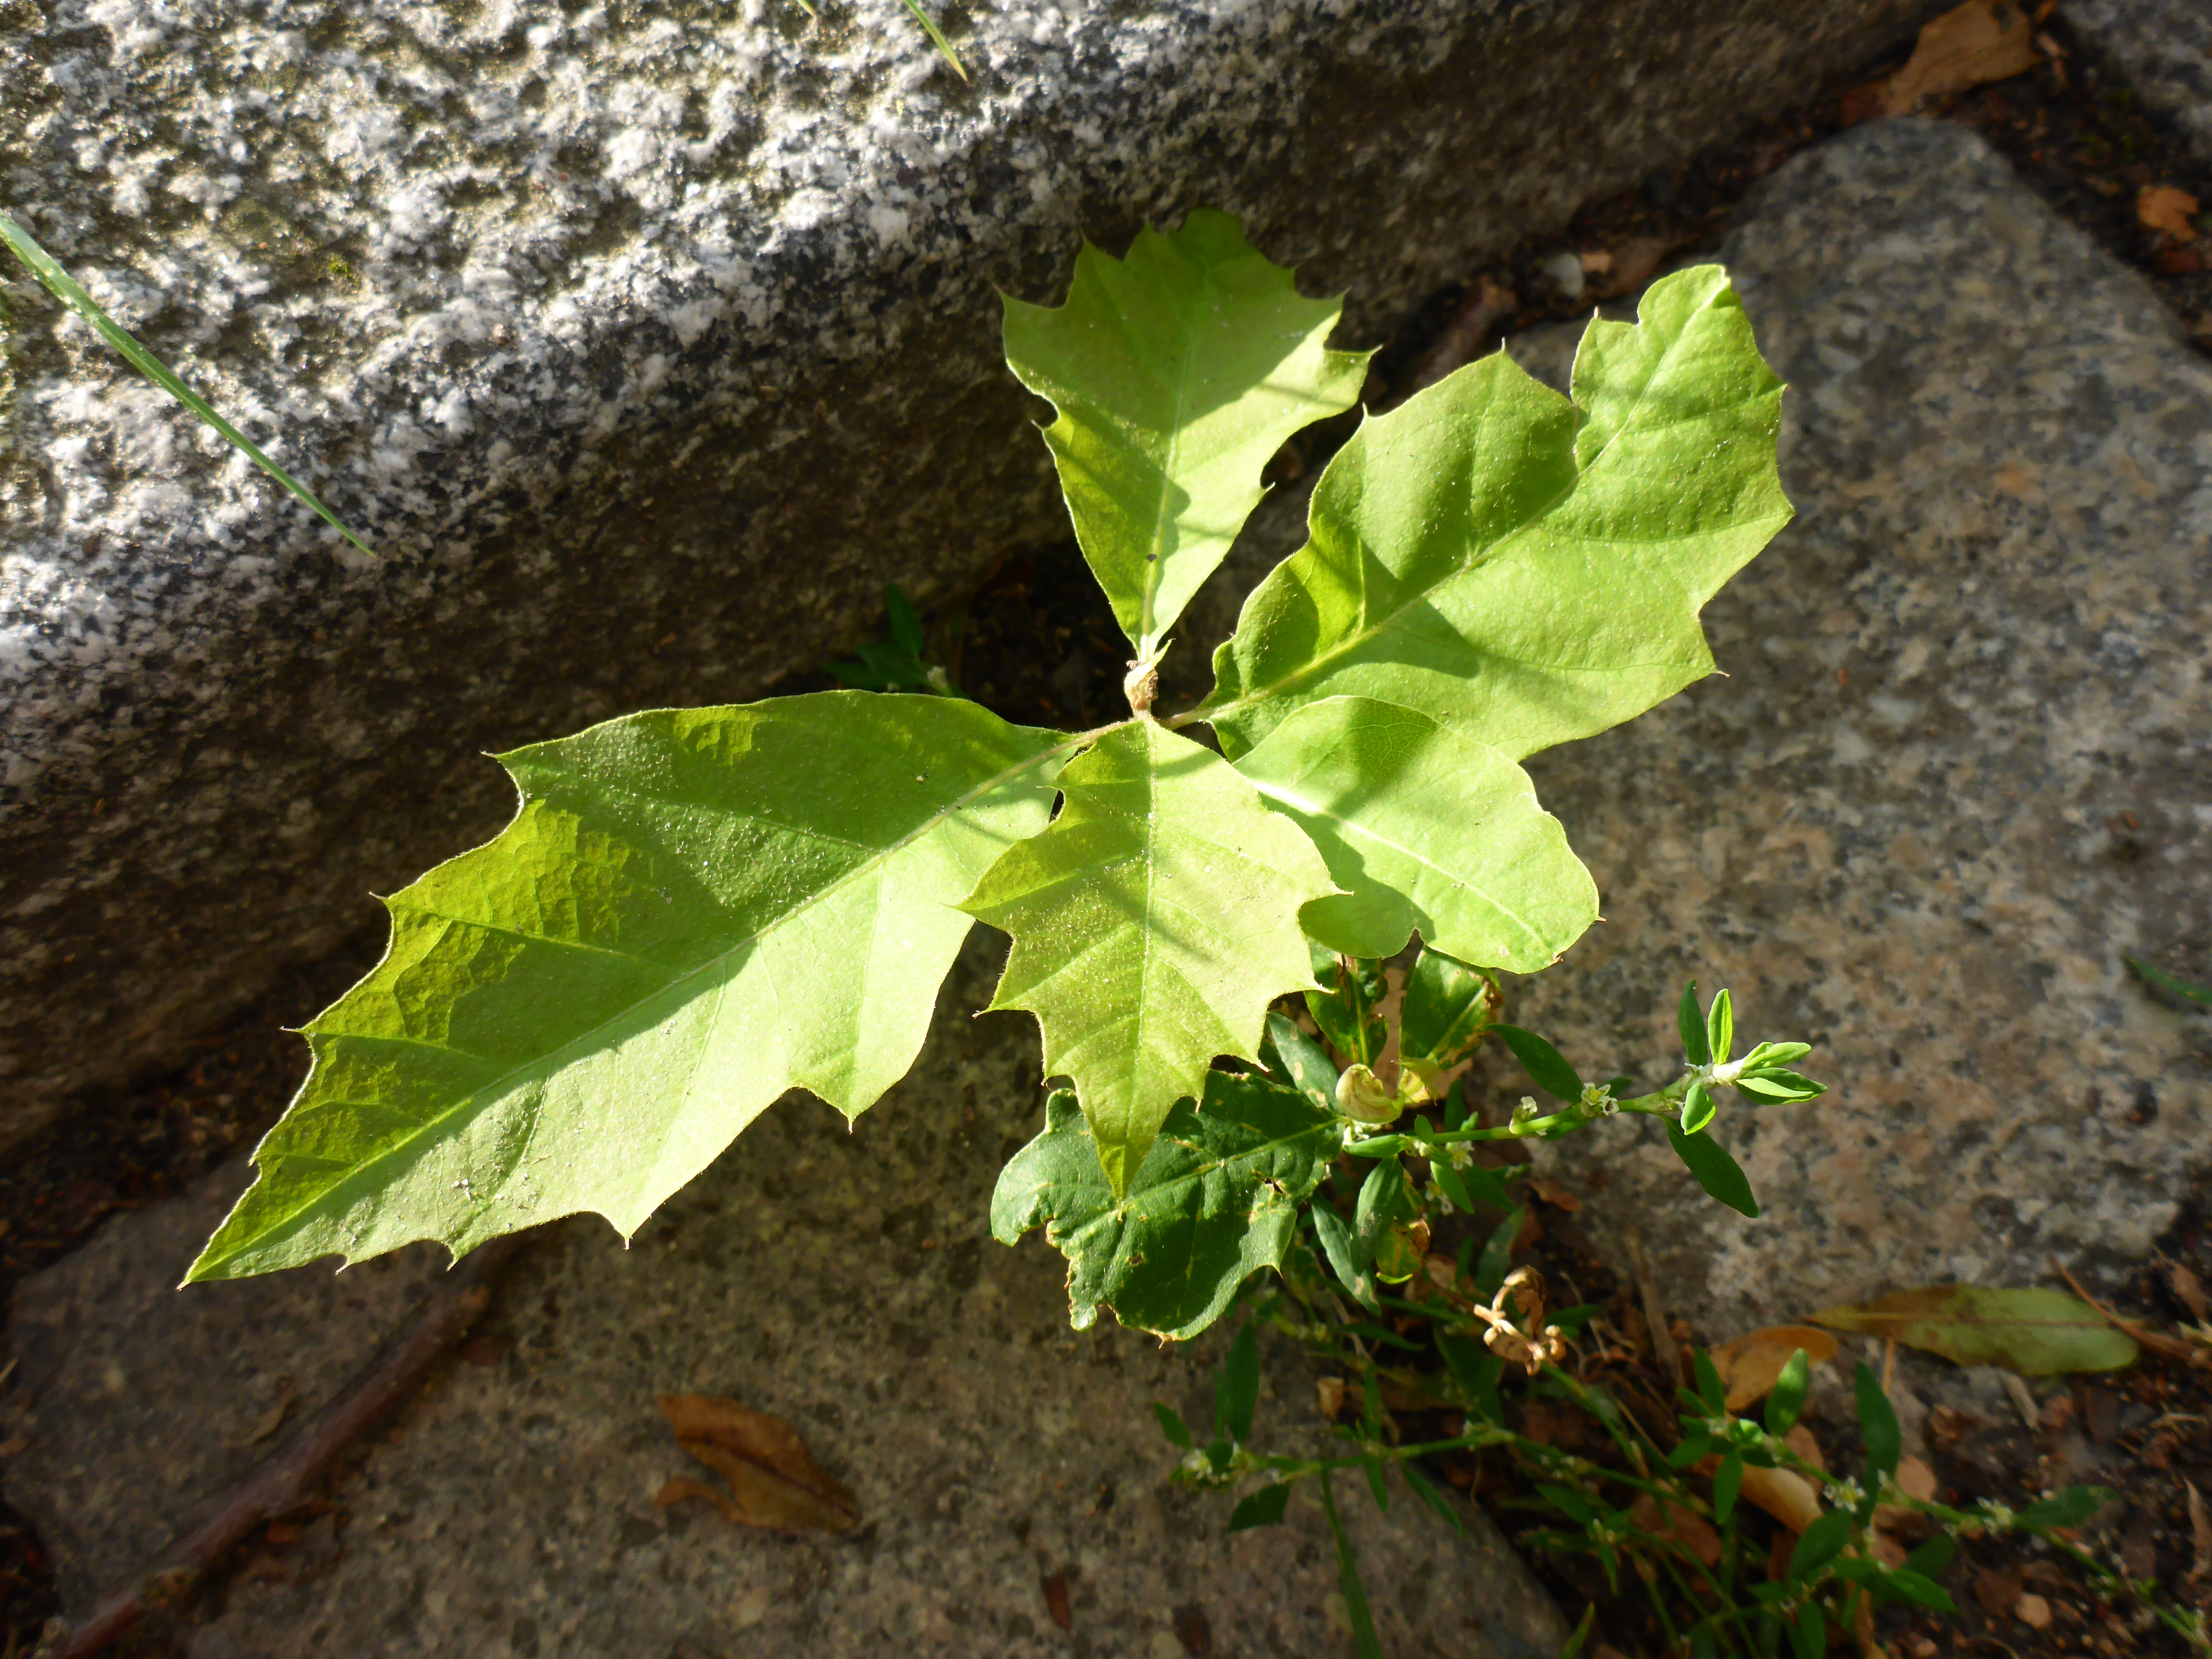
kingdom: Plantae
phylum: Tracheophyta
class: Magnoliopsida
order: Fagales
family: Fagaceae
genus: Quercus
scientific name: Quercus rubra
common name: Red oak
